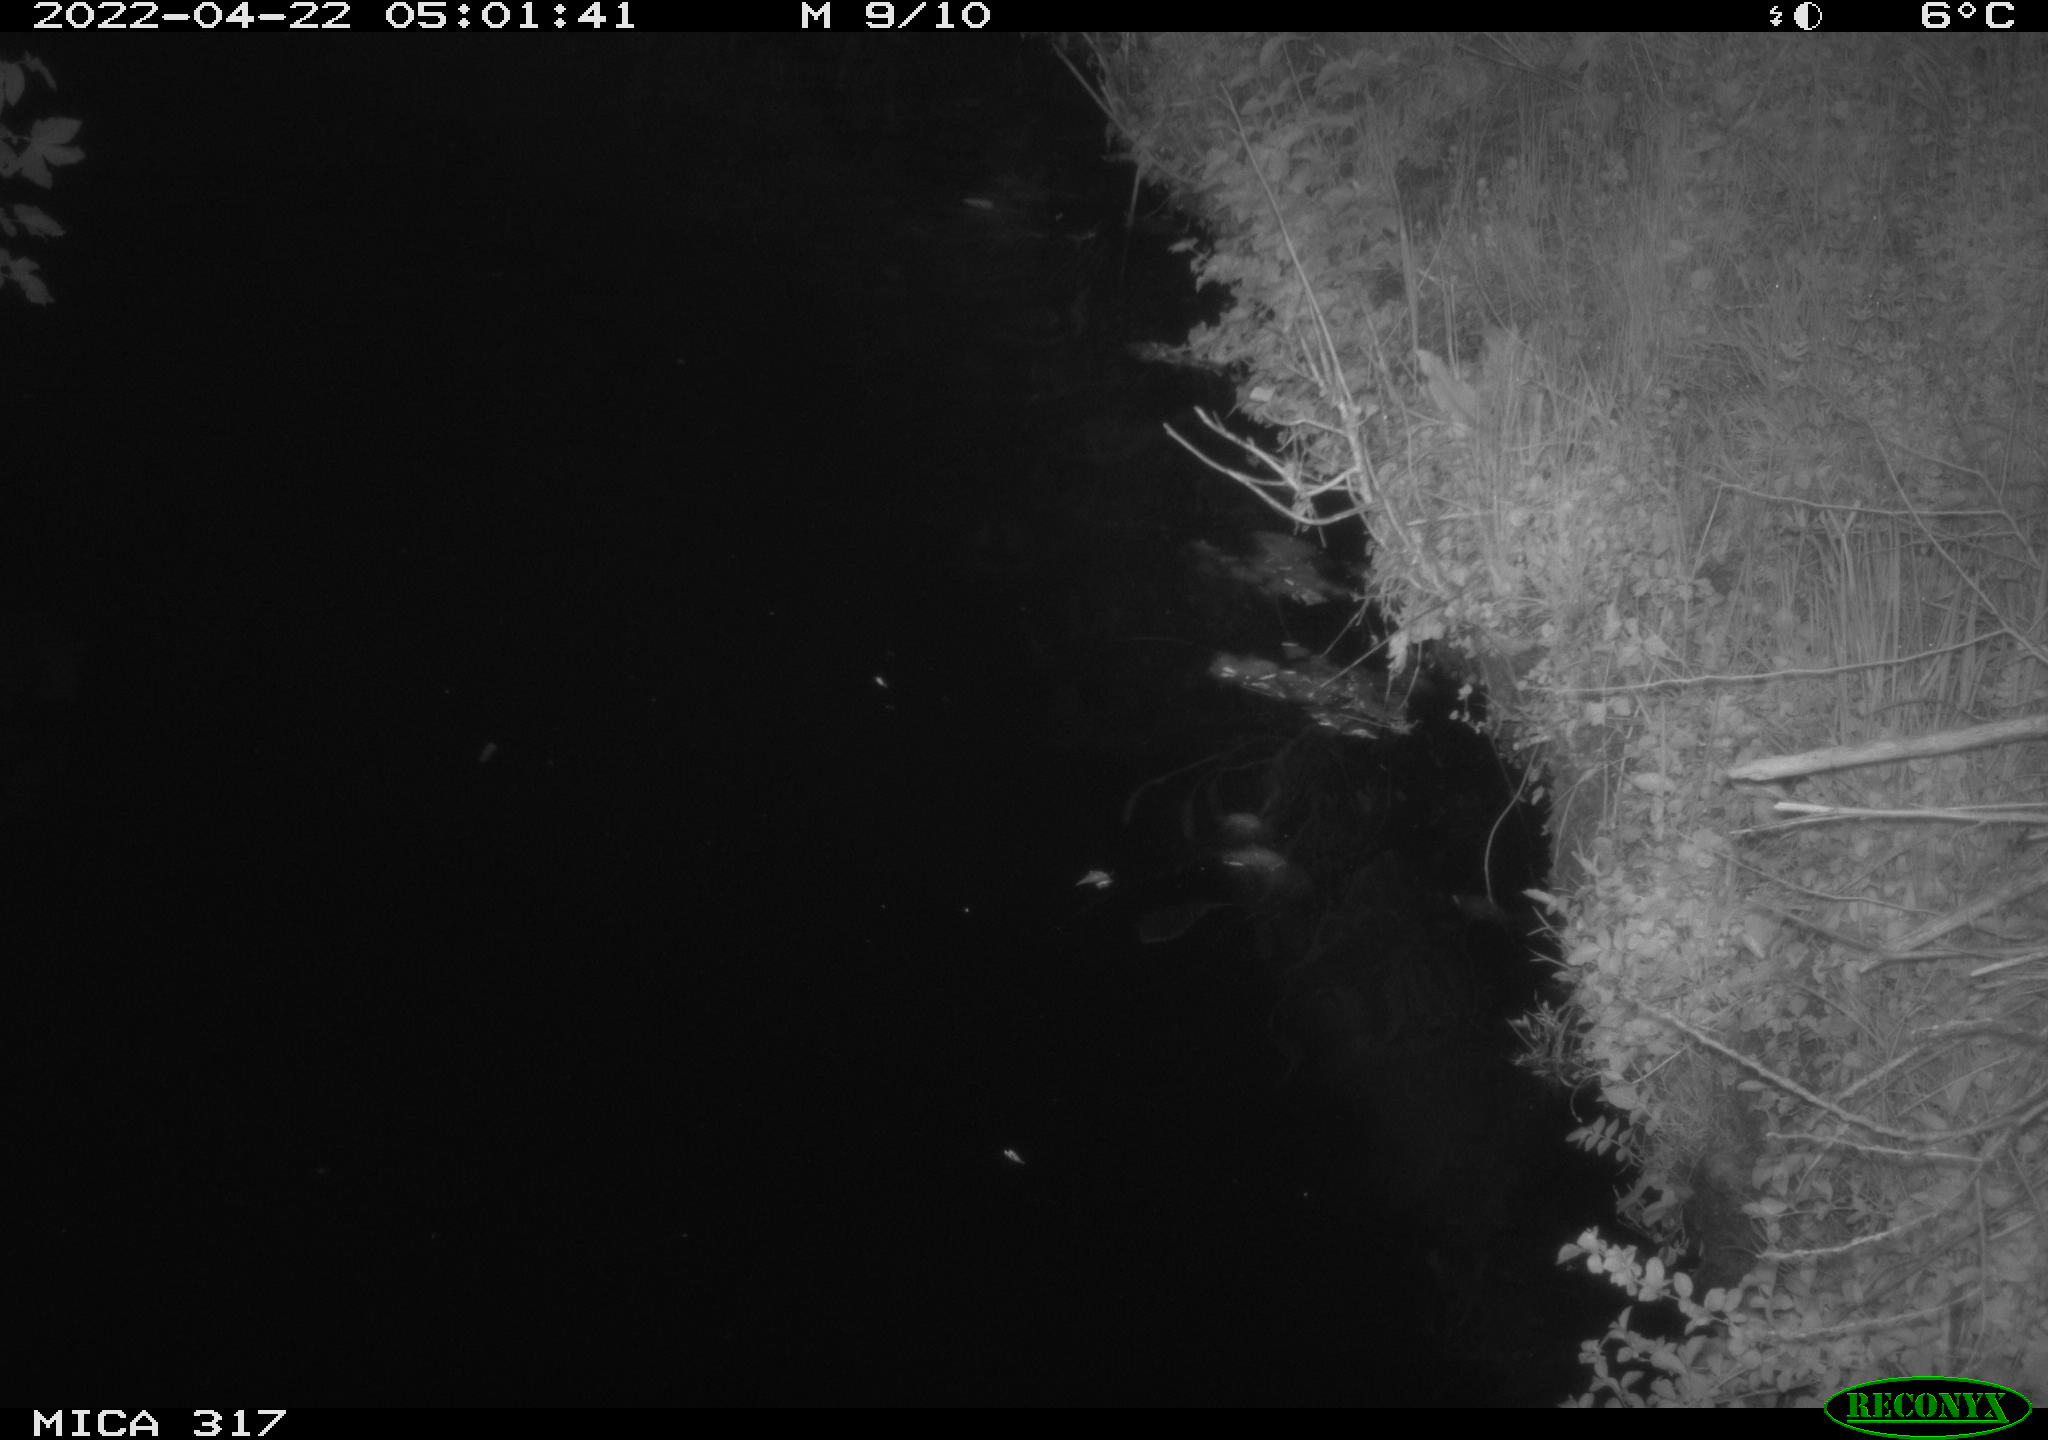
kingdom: Animalia
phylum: Chordata
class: Aves
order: Anseriformes
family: Anatidae
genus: Anas
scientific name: Anas platyrhynchos
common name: Mallard
